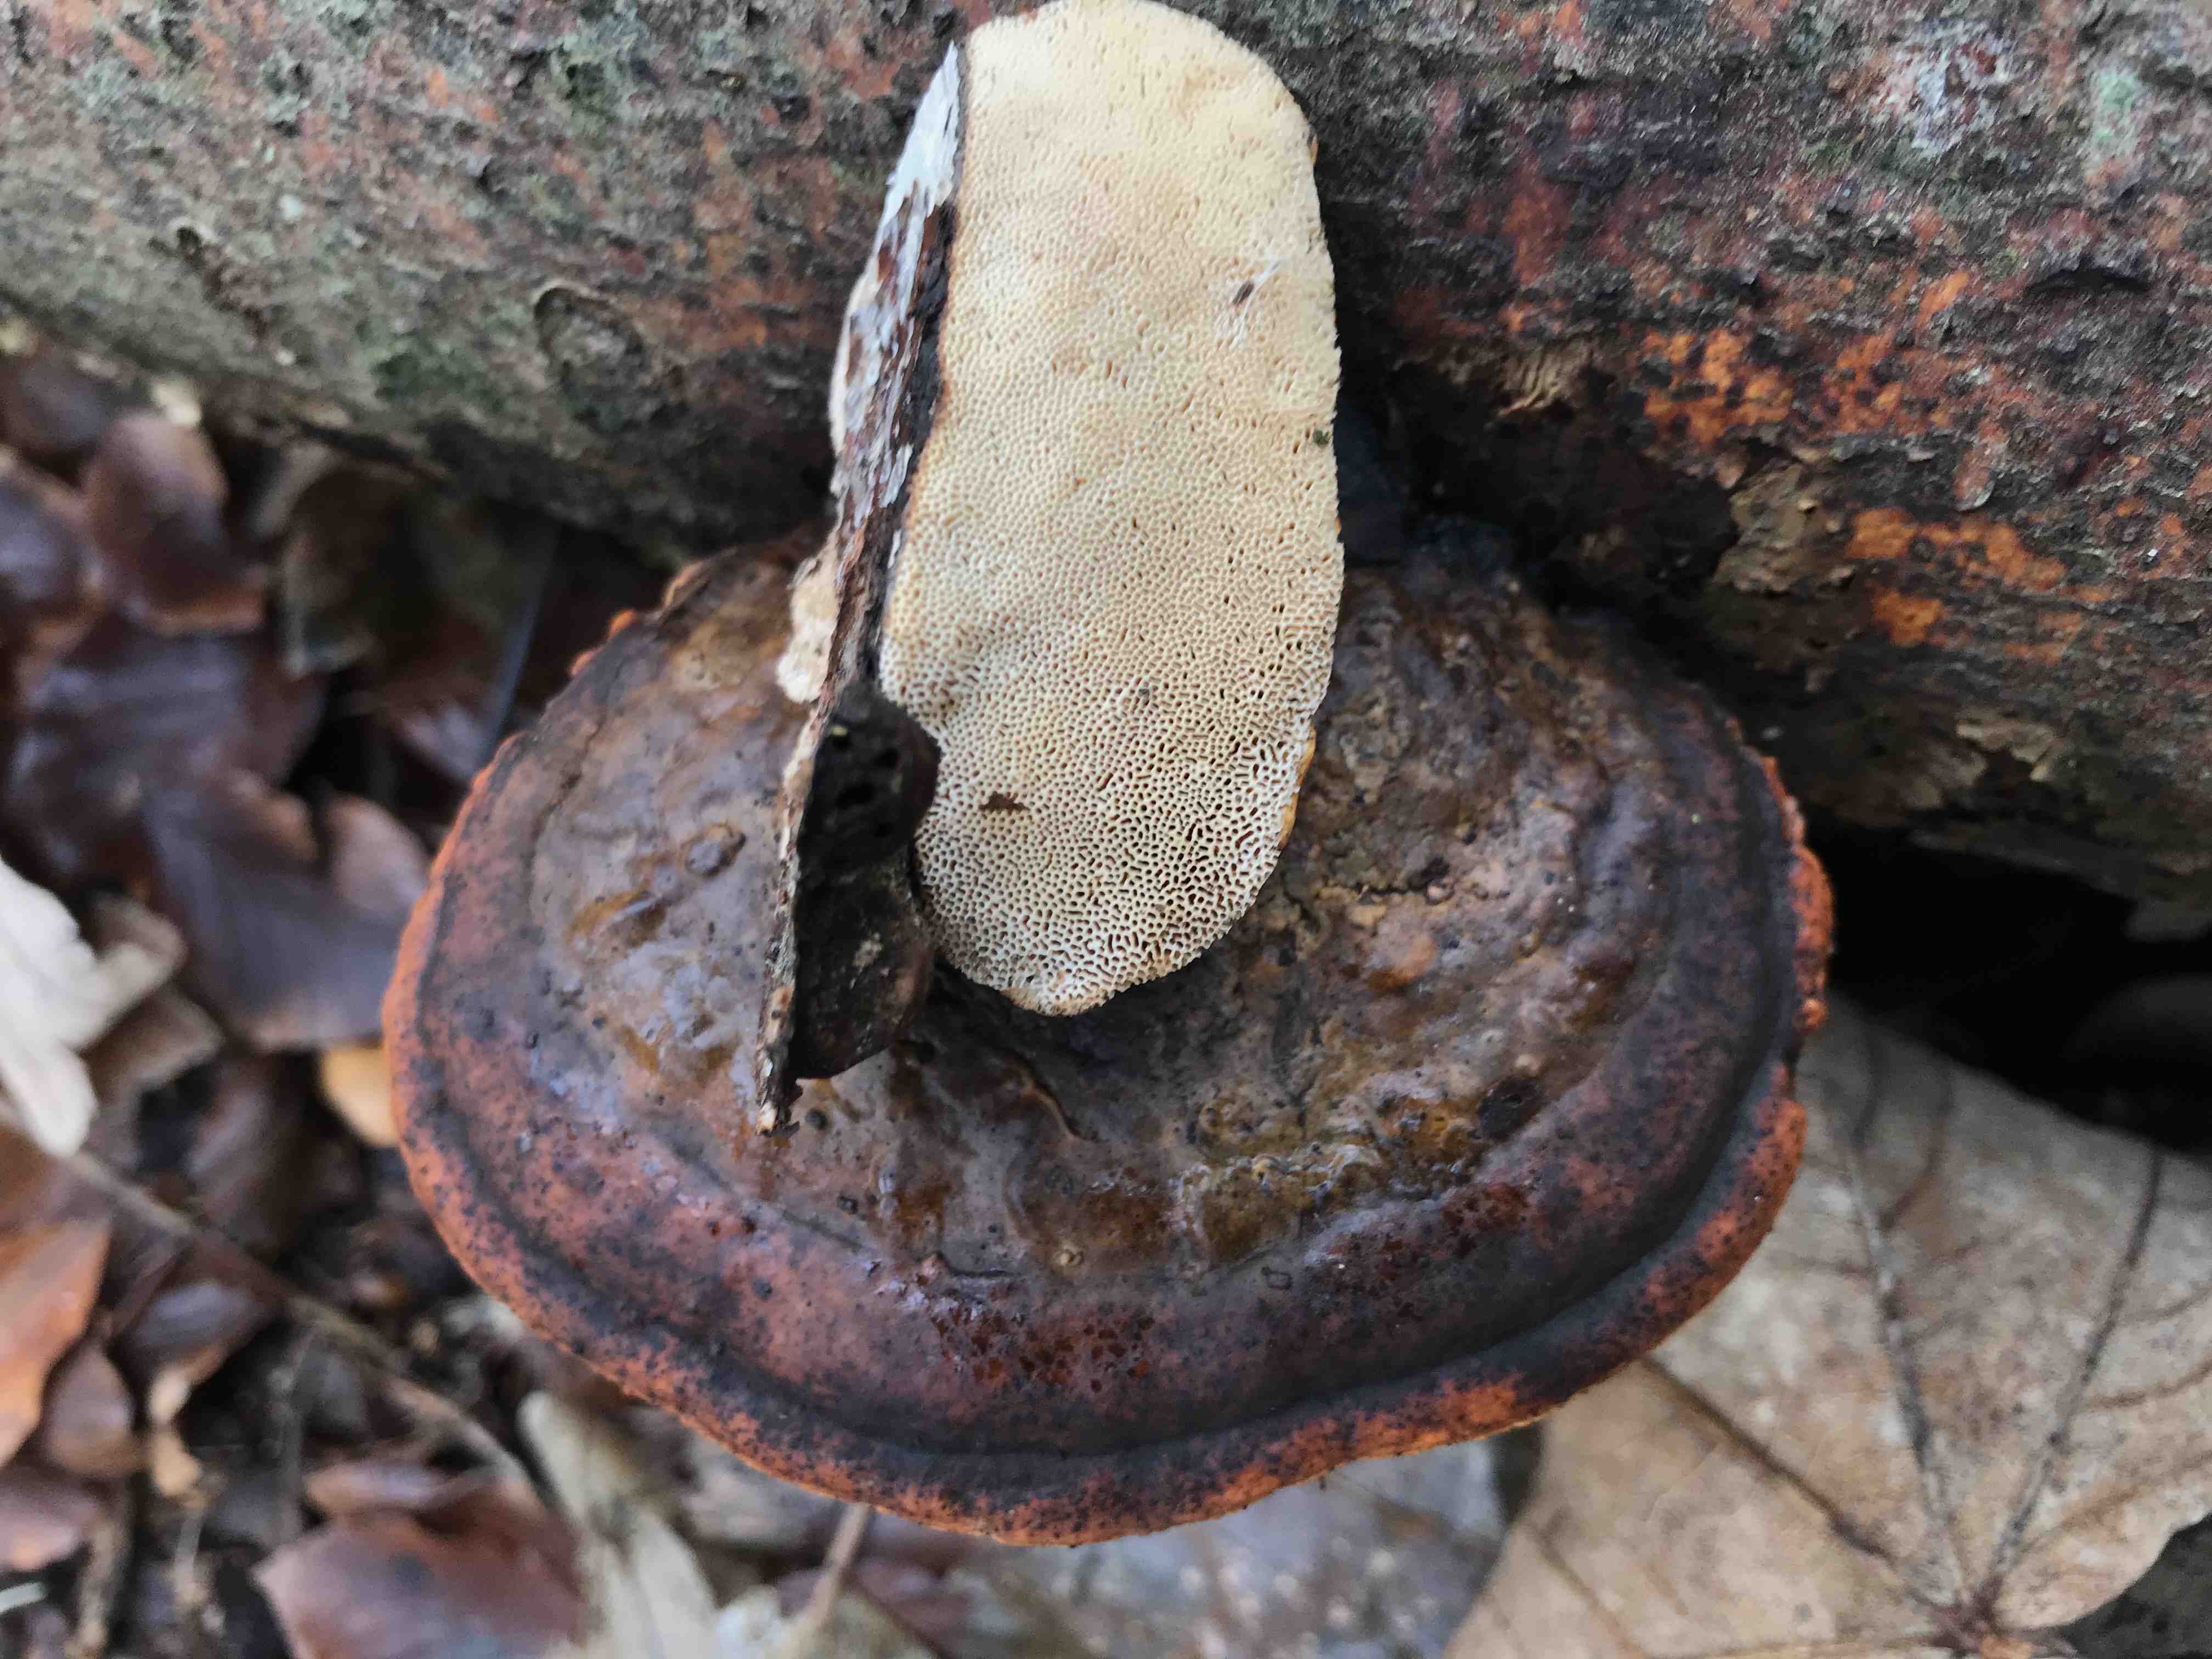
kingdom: Fungi
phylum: Basidiomycota
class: Agaricomycetes
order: Polyporales
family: Fomitopsidaceae
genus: Fomitopsis
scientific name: Fomitopsis pinicola
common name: randbæltet hovporesvamp
